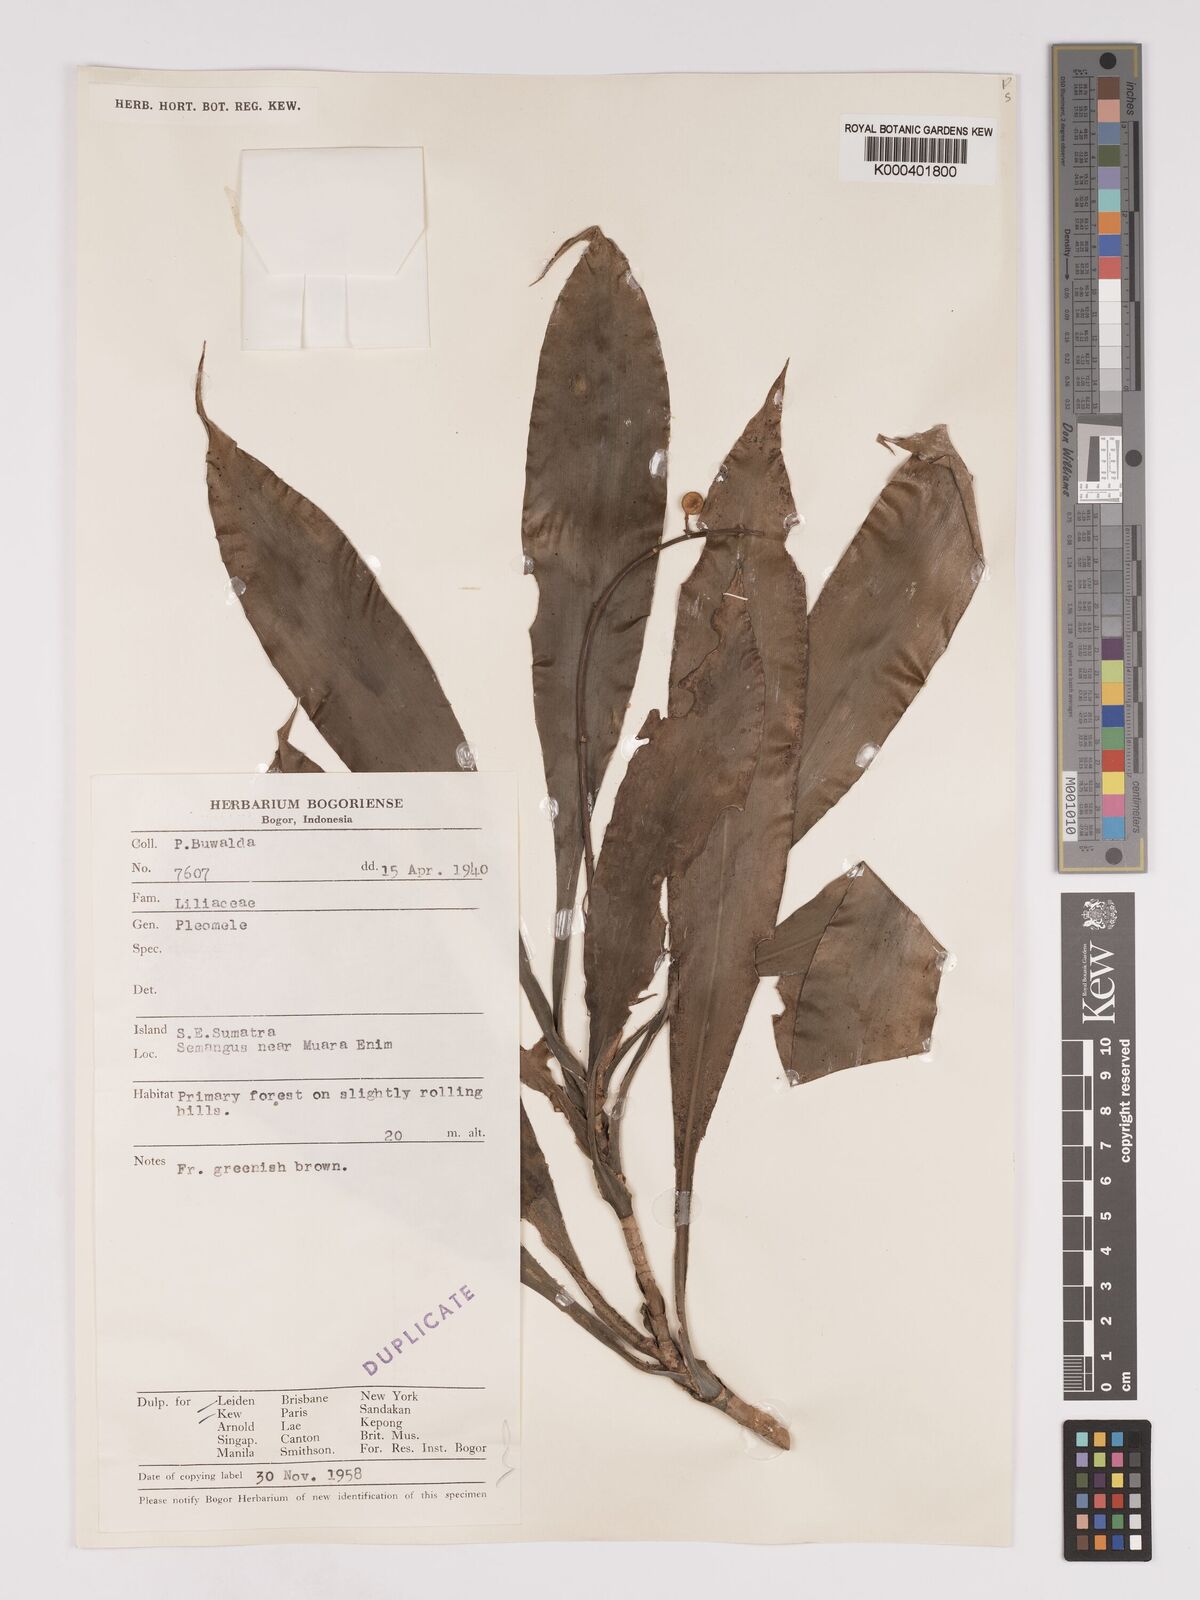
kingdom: Plantae
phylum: Tracheophyta
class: Liliopsida
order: Asparagales
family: Asparagaceae
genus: Dracaena
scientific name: Dracaena
